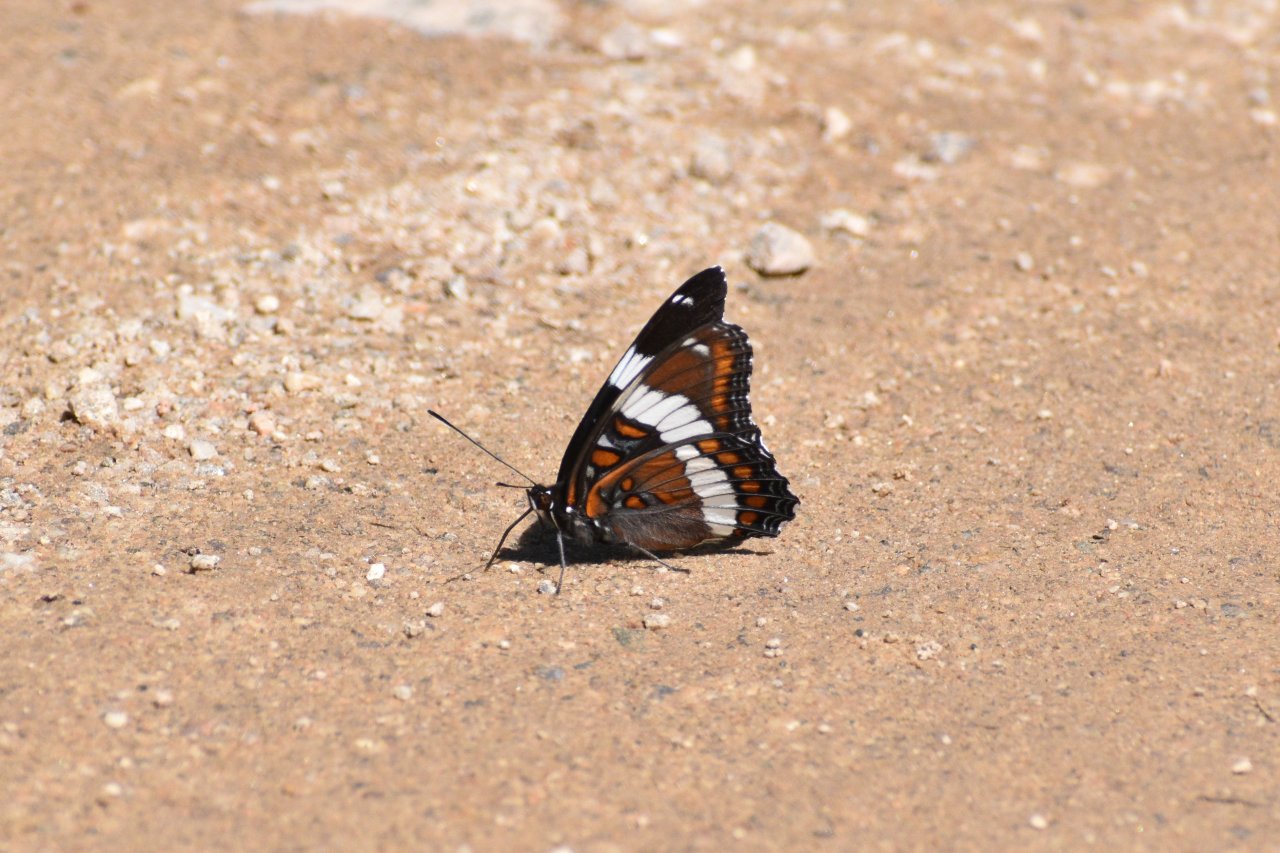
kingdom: Animalia
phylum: Arthropoda
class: Insecta
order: Lepidoptera
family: Nymphalidae
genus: Limenitis
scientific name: Limenitis arthemis
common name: Red-spotted Admiral
